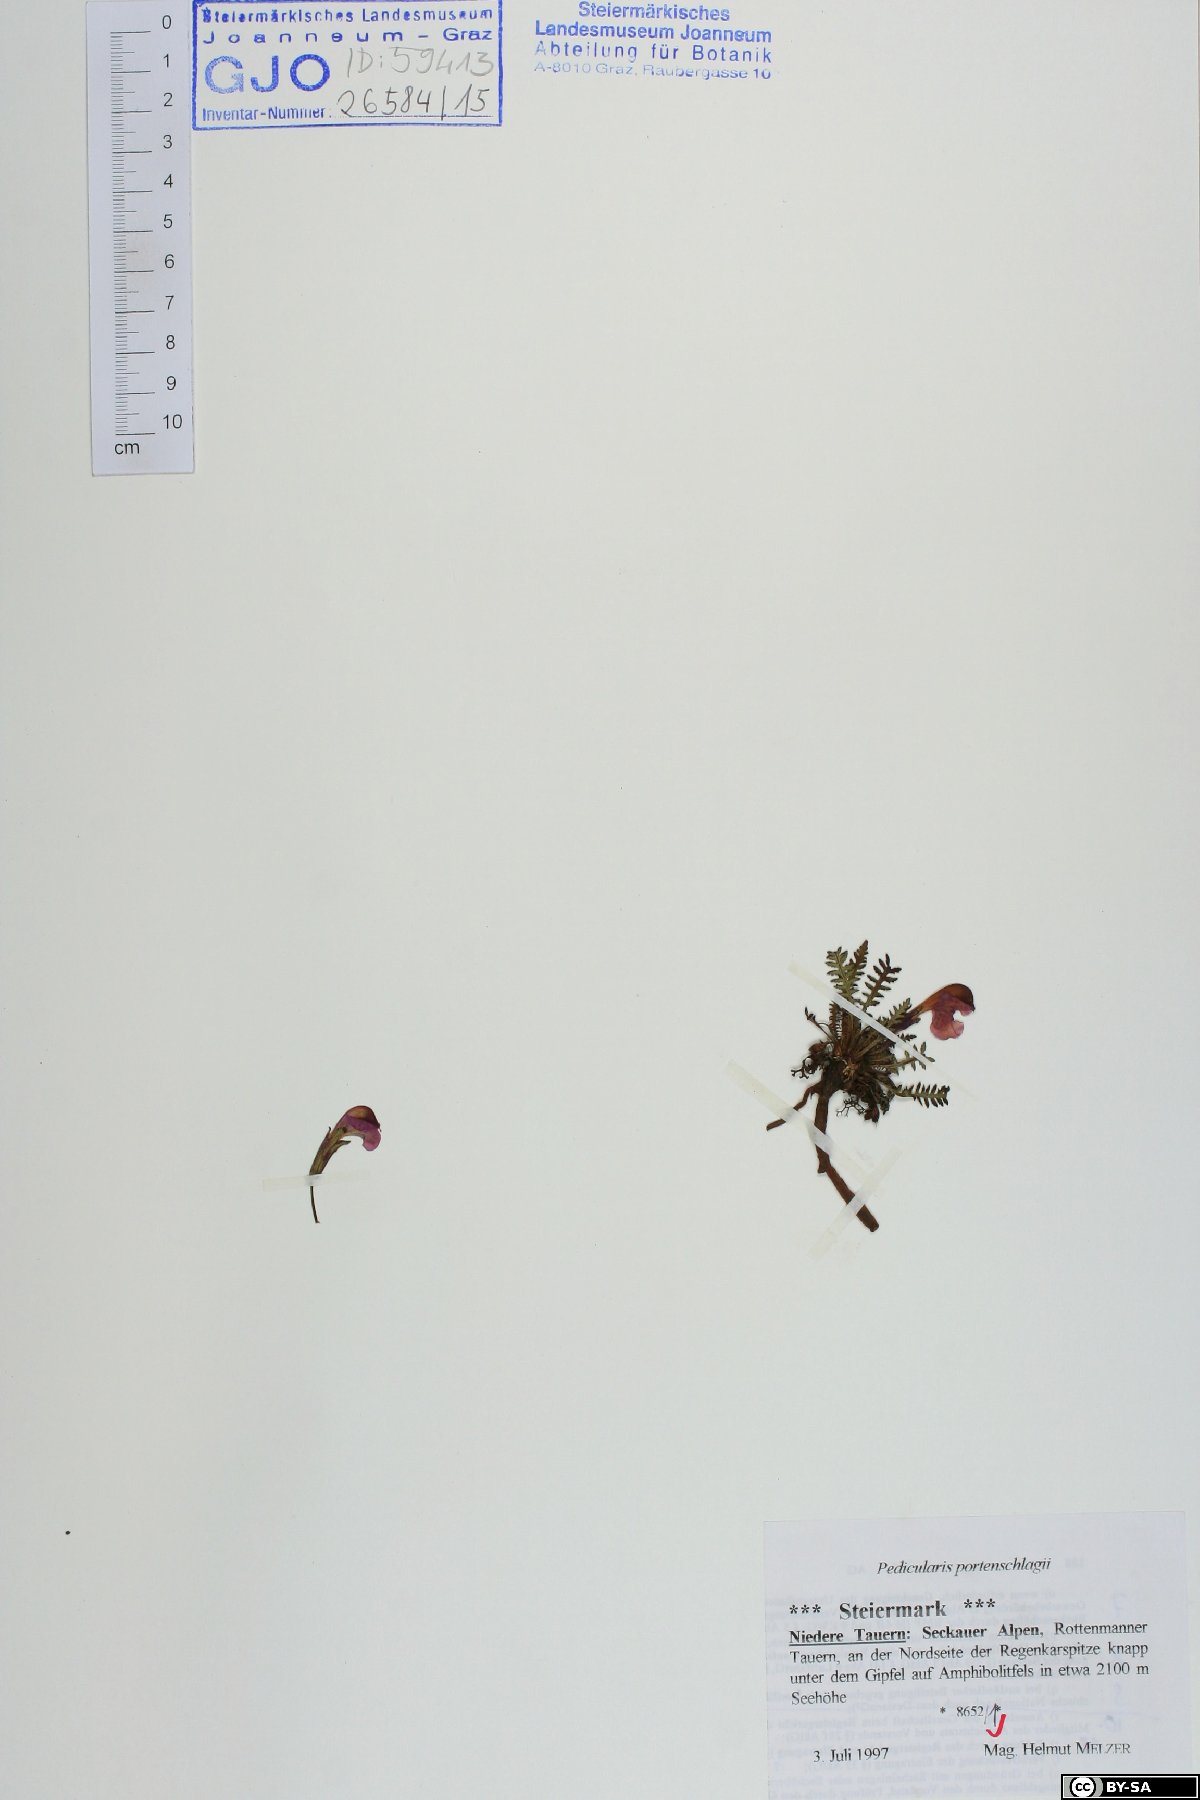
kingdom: Plantae
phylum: Tracheophyta
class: Magnoliopsida
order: Lamiales
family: Orobanchaceae
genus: Pedicularis
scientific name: Pedicularis portenschlagii
